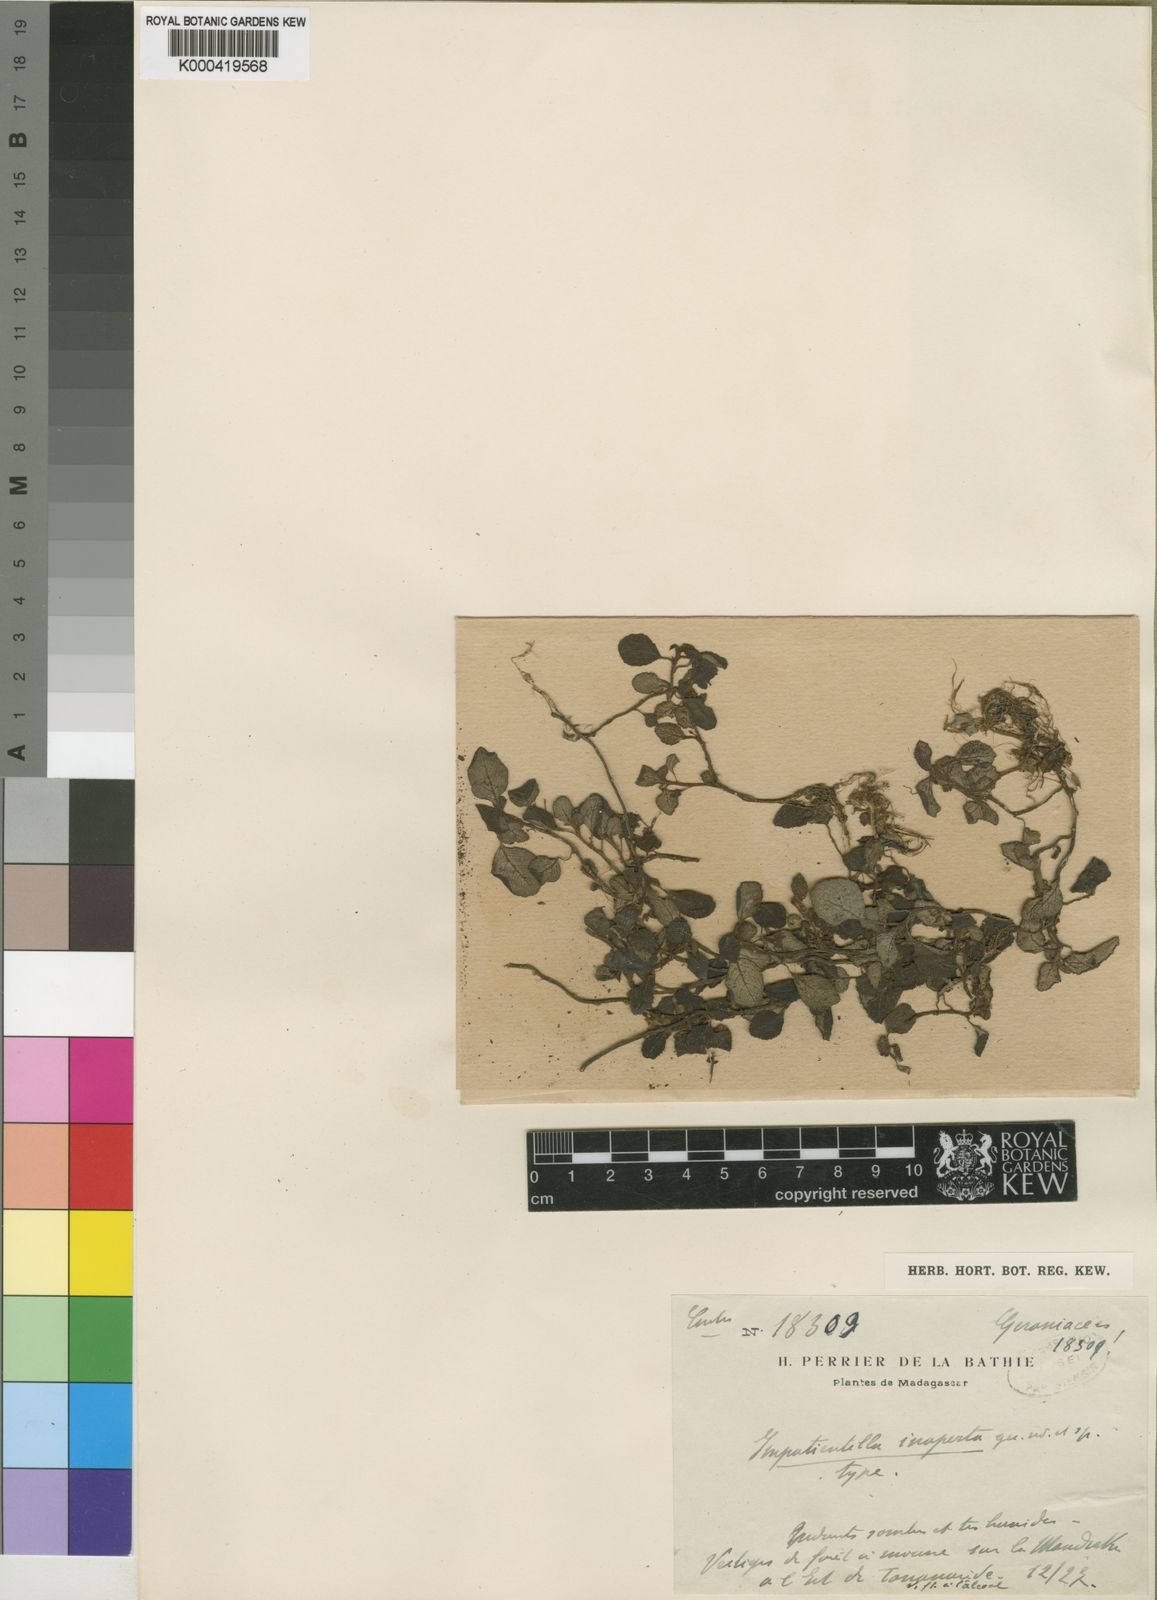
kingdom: Plantae
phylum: Tracheophyta
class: Magnoliopsida
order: Ericales
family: Balsaminaceae
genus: Impatiens
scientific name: Impatiens inaperta
